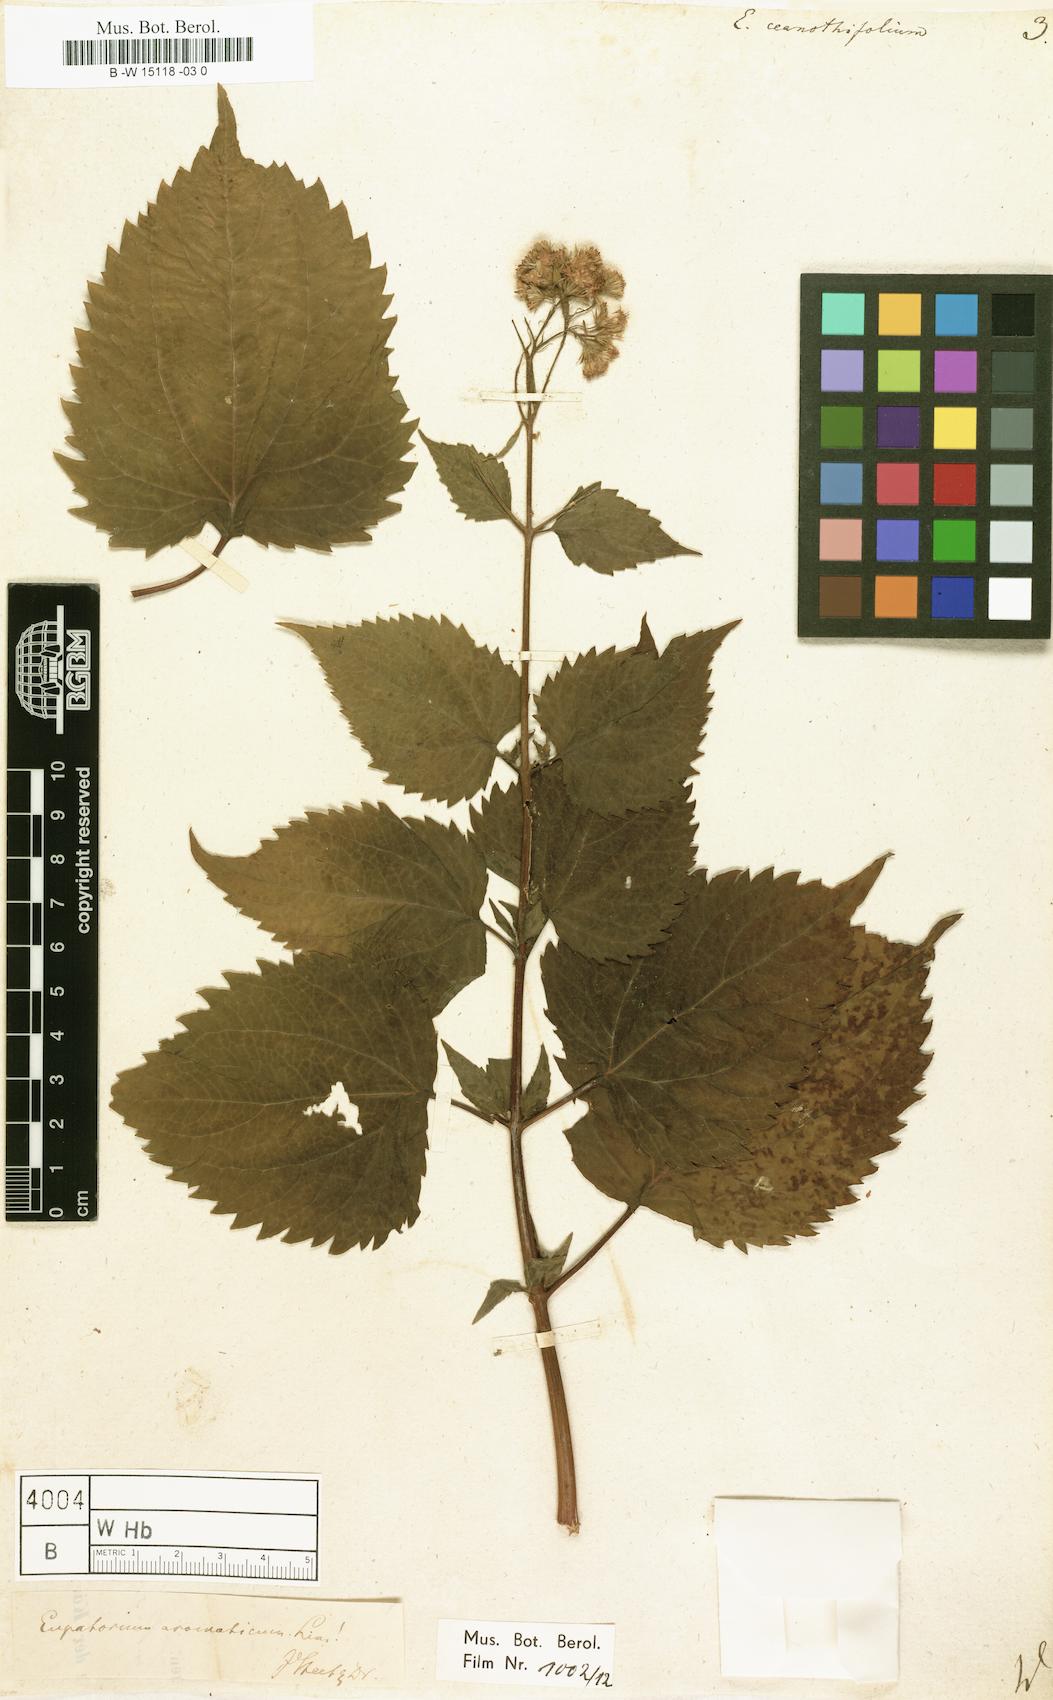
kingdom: Plantae
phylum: Tracheophyta
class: Magnoliopsida
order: Asterales
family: Asteraceae
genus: Ageratina
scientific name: Ageratina
